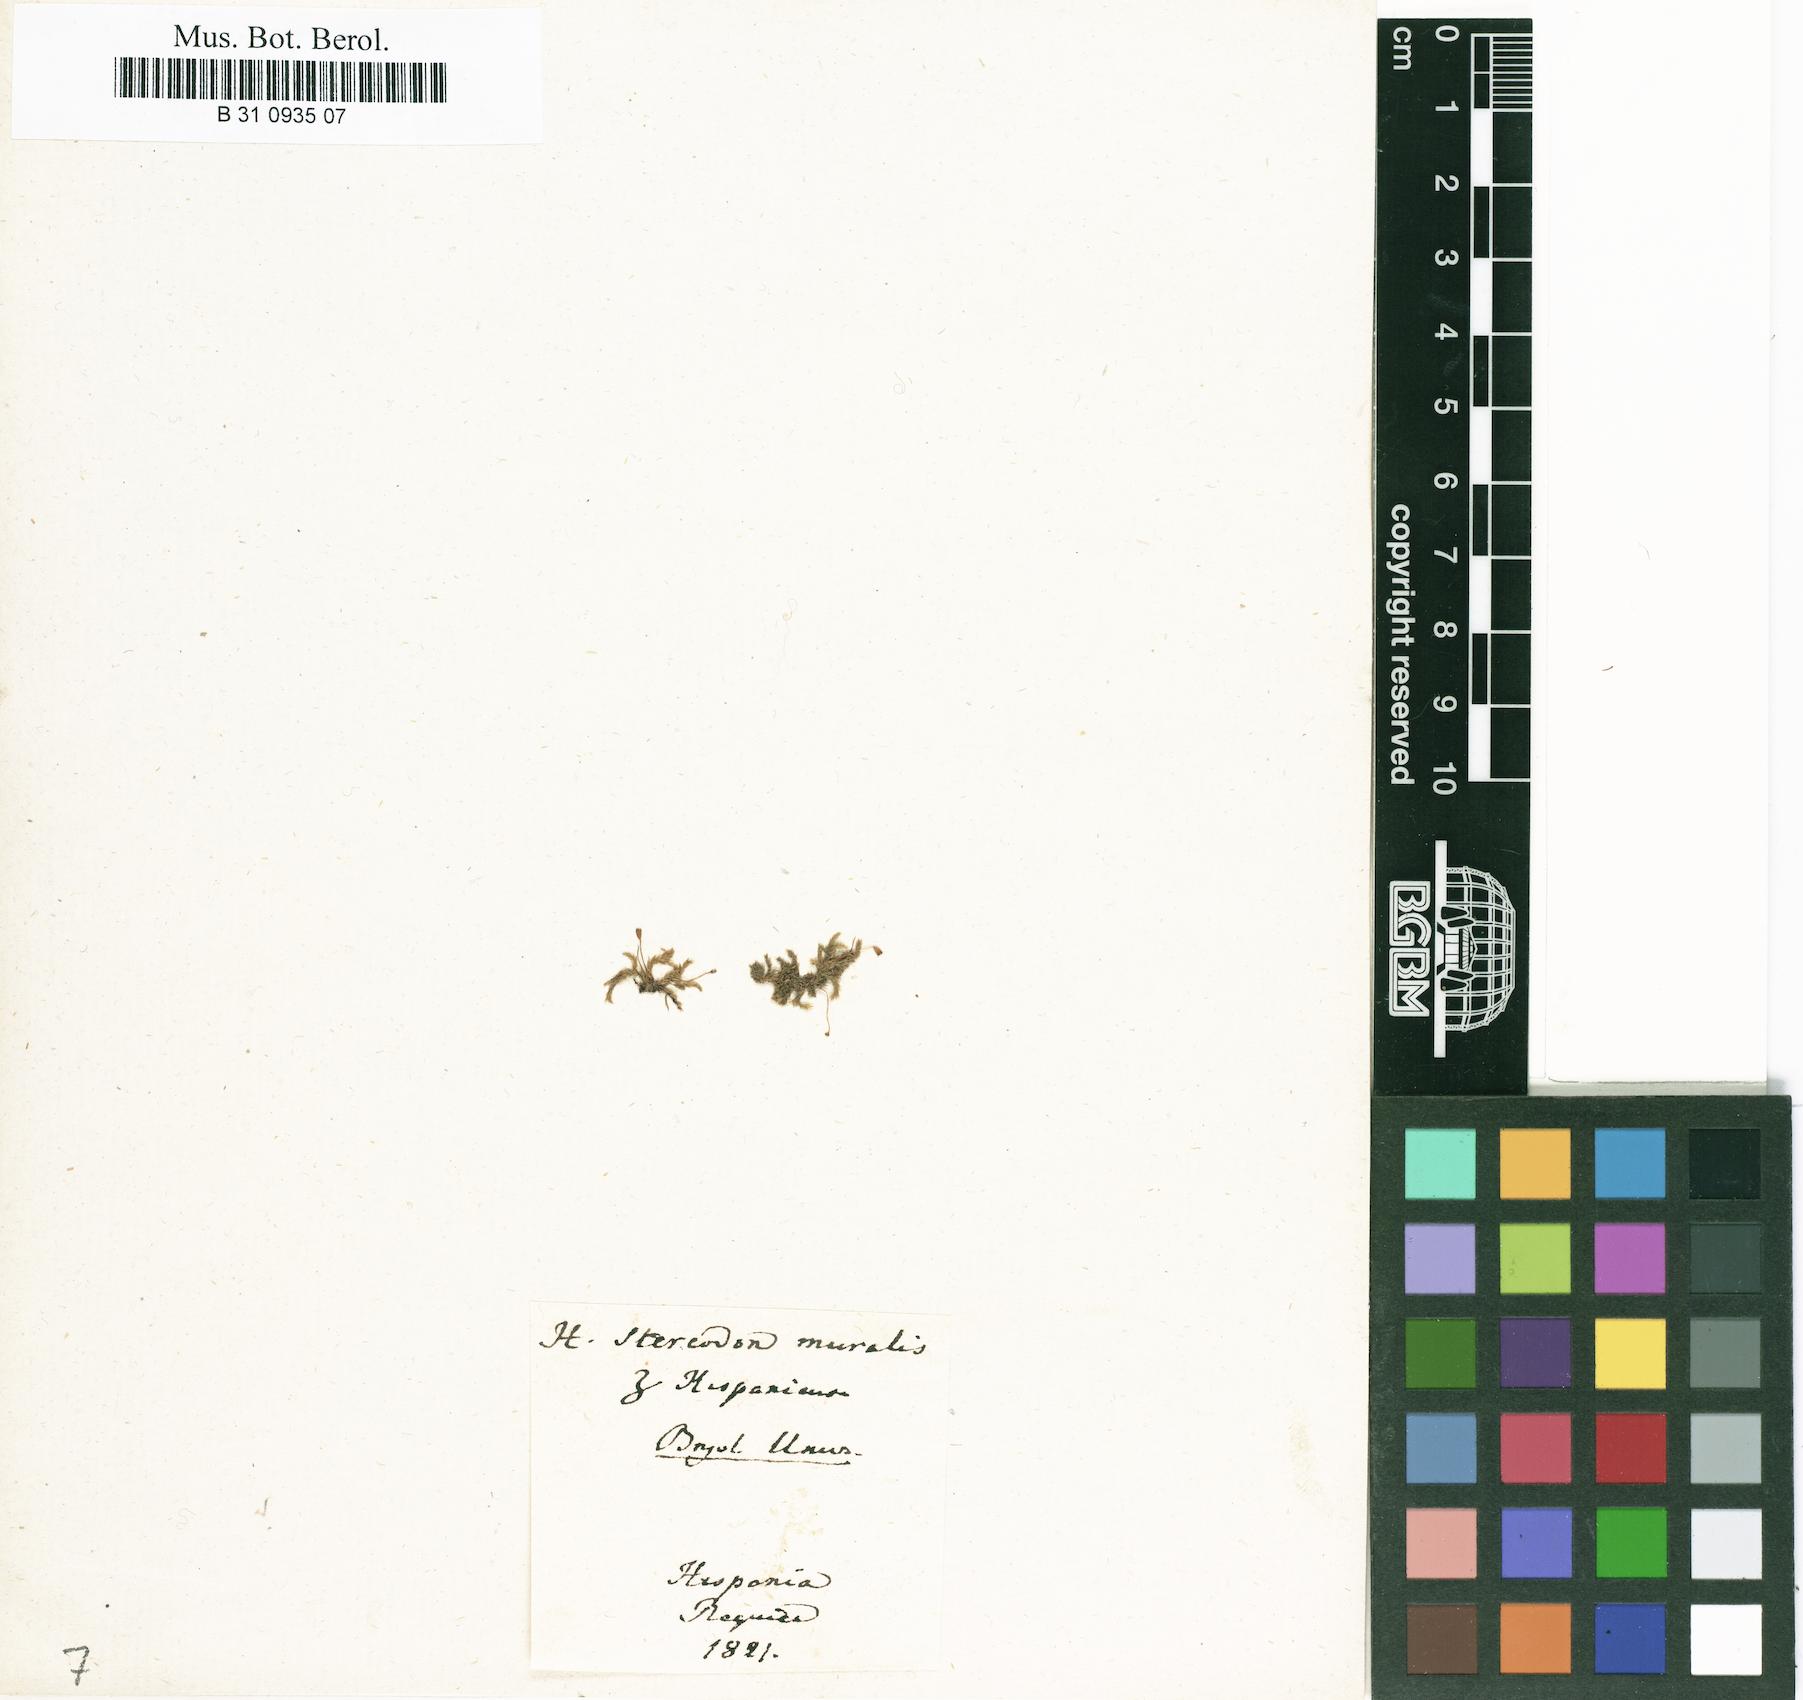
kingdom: Plantae
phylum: Bryophyta
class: Bryopsida
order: Hypnales
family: Brachytheciaceae
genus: Rhynchostegium
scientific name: Rhynchostegium murale
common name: Wall feather-moss
